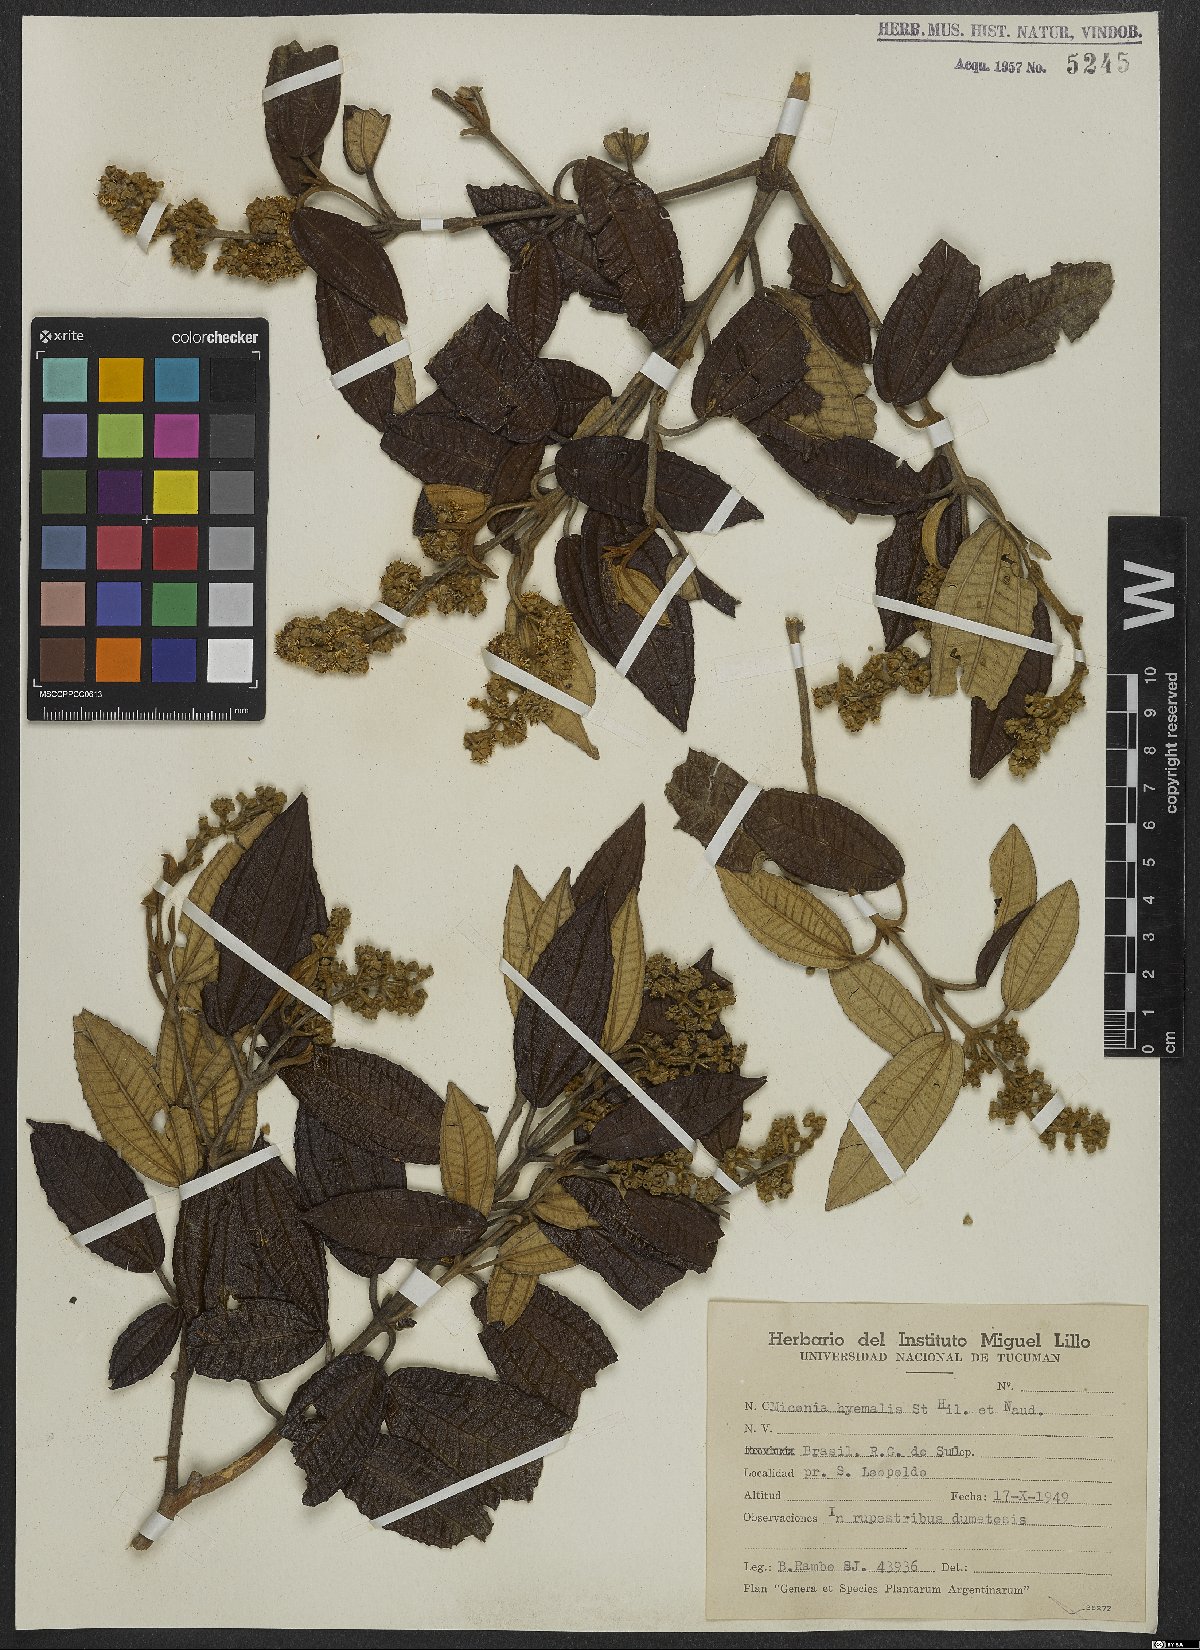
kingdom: Plantae
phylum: Tracheophyta
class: Magnoliopsida
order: Myrtales
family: Melastomataceae
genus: Miconia
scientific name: Miconia hyemalis
